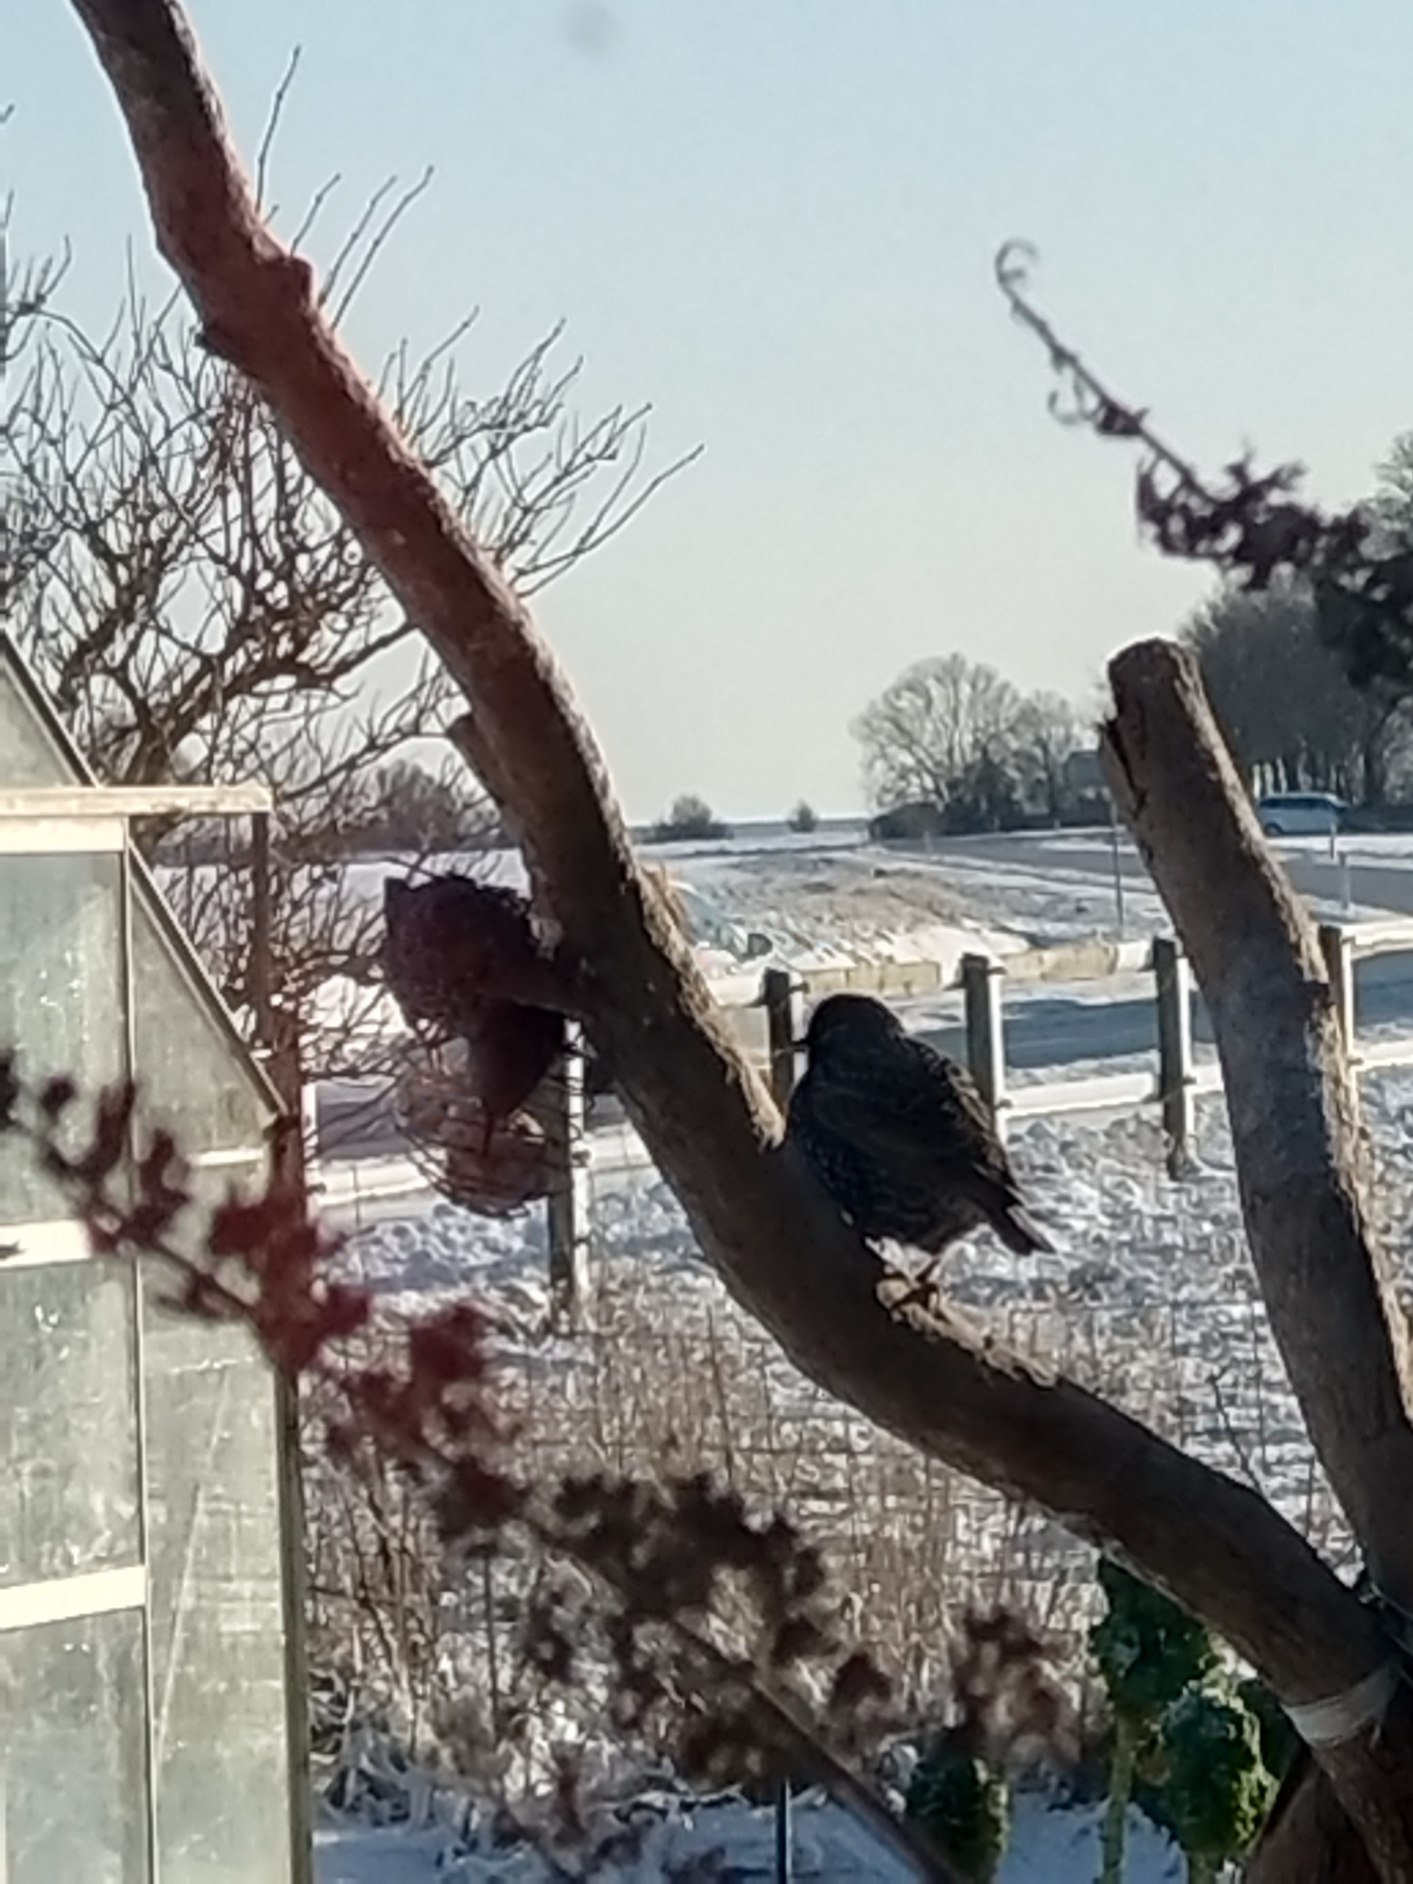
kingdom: Animalia
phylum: Chordata
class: Aves
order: Passeriformes
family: Sturnidae
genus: Sturnus
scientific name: Sturnus vulgaris
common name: Stær
